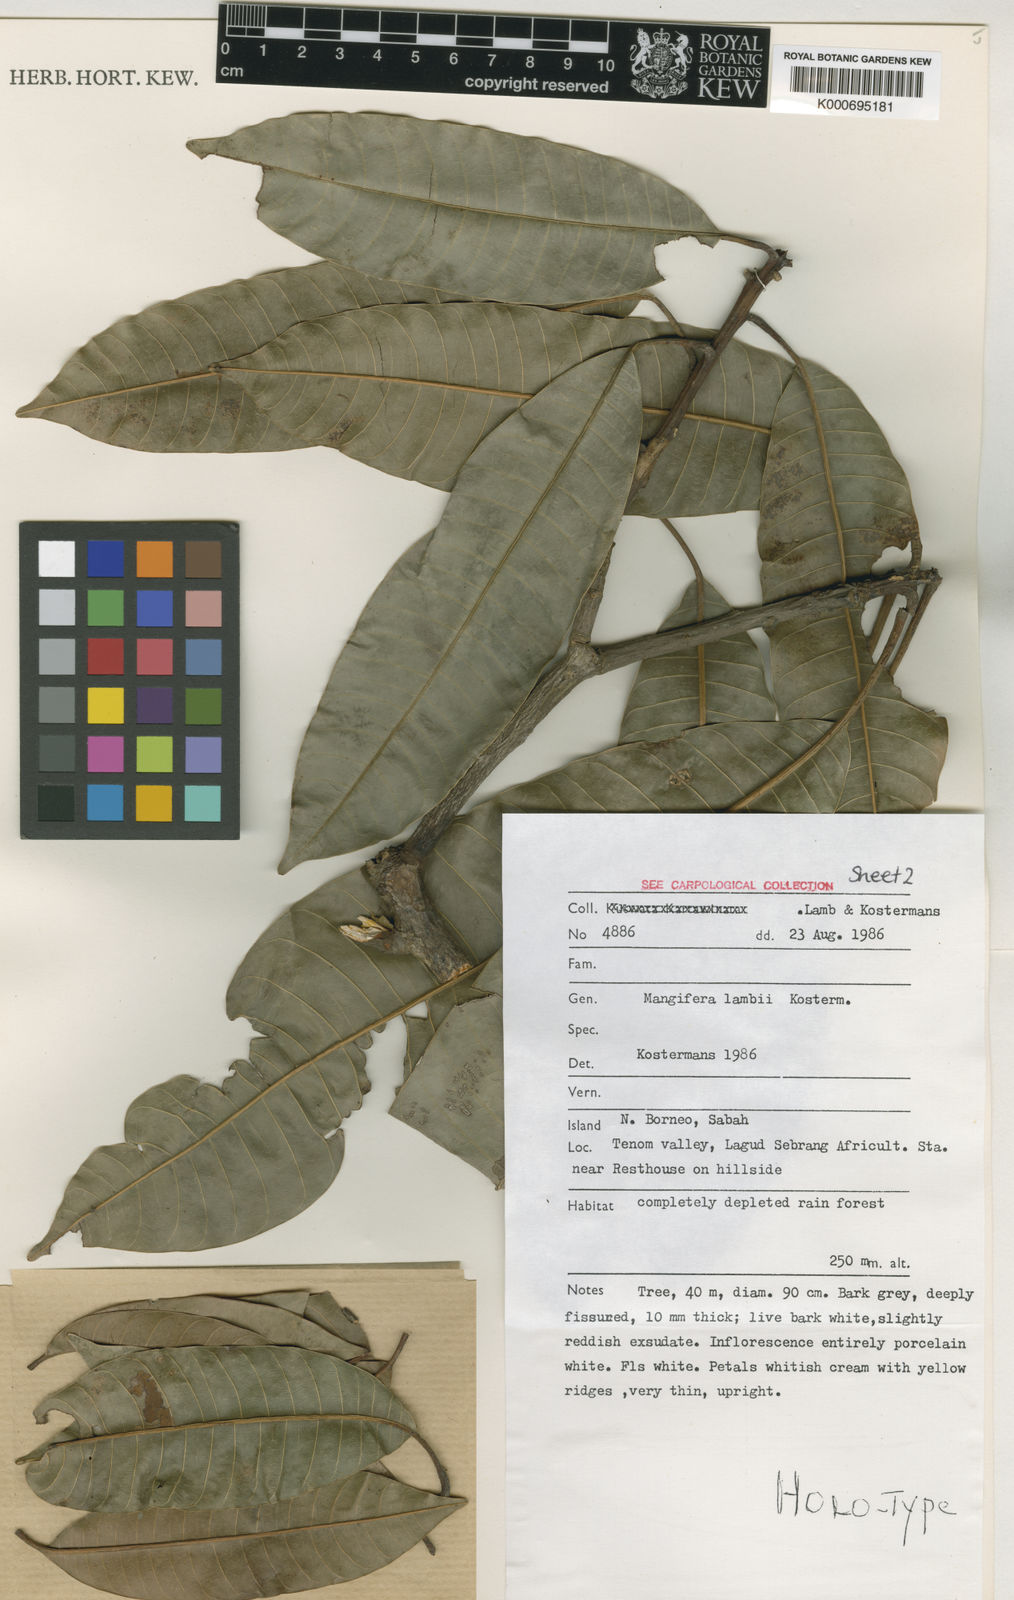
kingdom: Plantae
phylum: Tracheophyta
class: Magnoliopsida
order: Sapindales
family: Anacardiaceae
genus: Mangifera
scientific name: Mangifera
